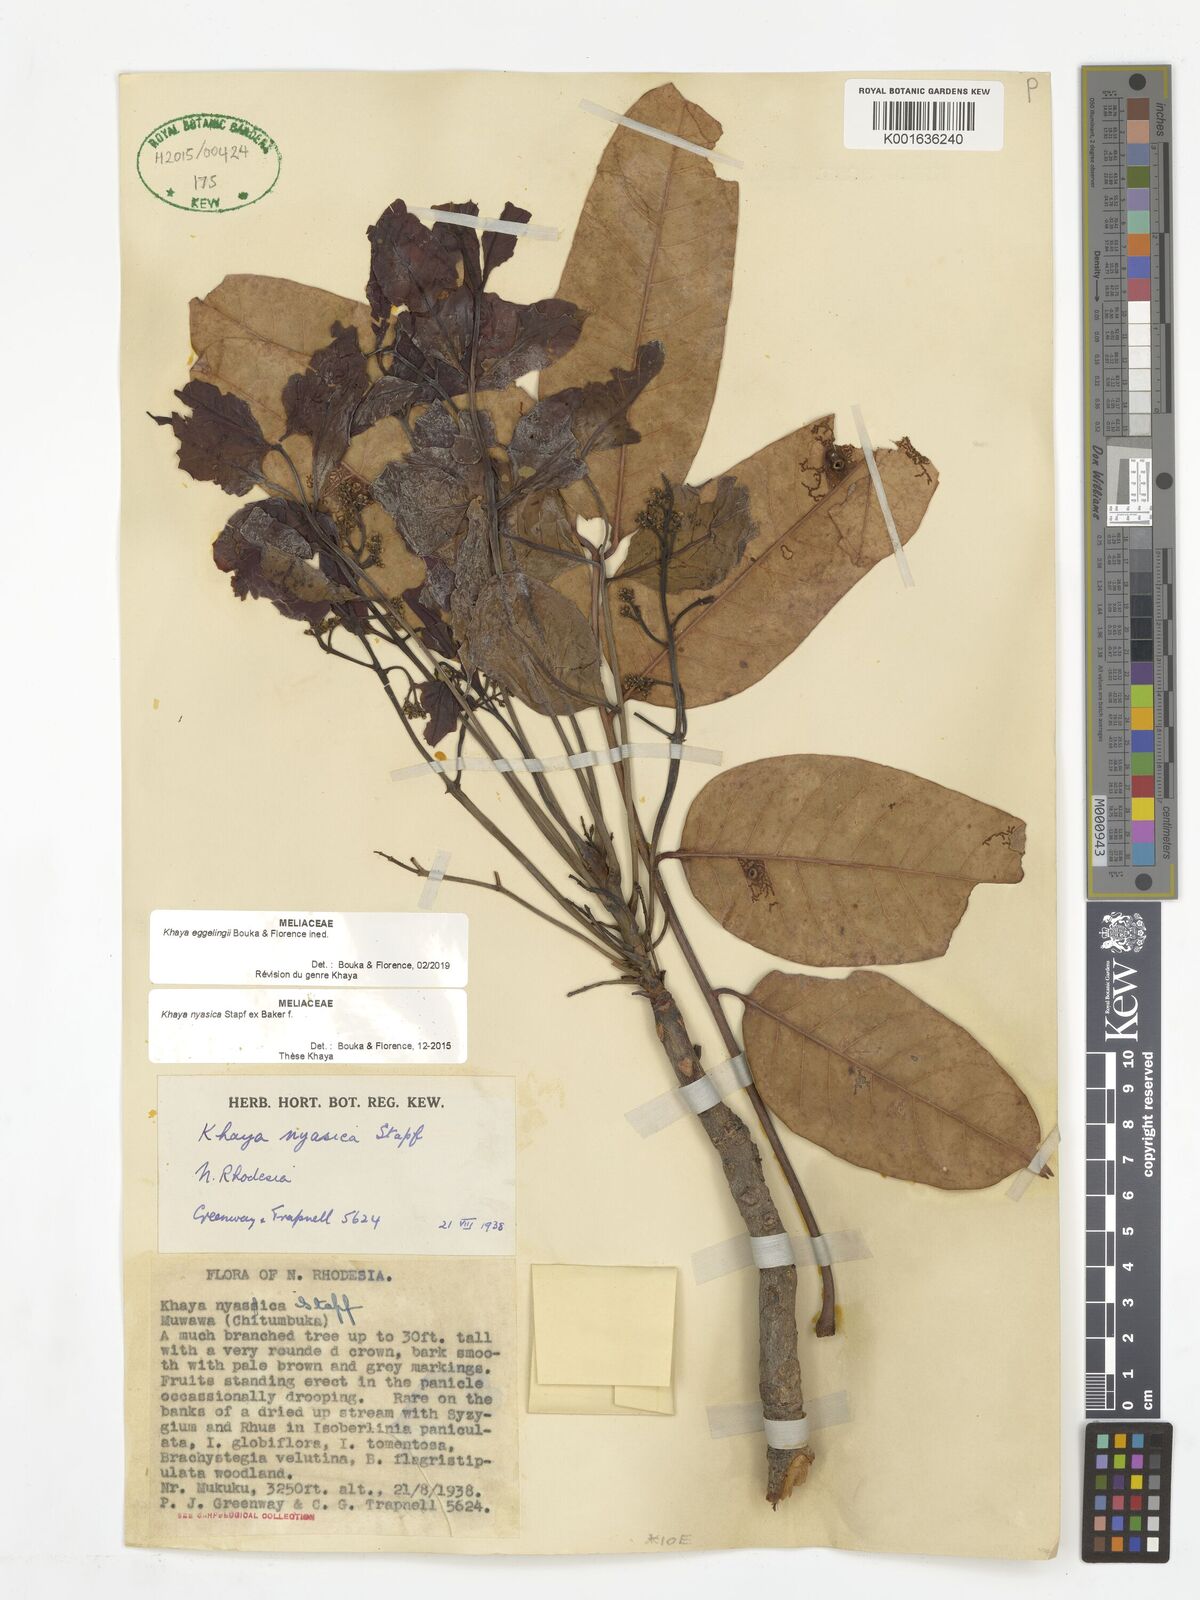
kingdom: Plantae
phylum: Tracheophyta
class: Magnoliopsida
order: Sapindales
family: Meliaceae
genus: Khaya
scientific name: Khaya
